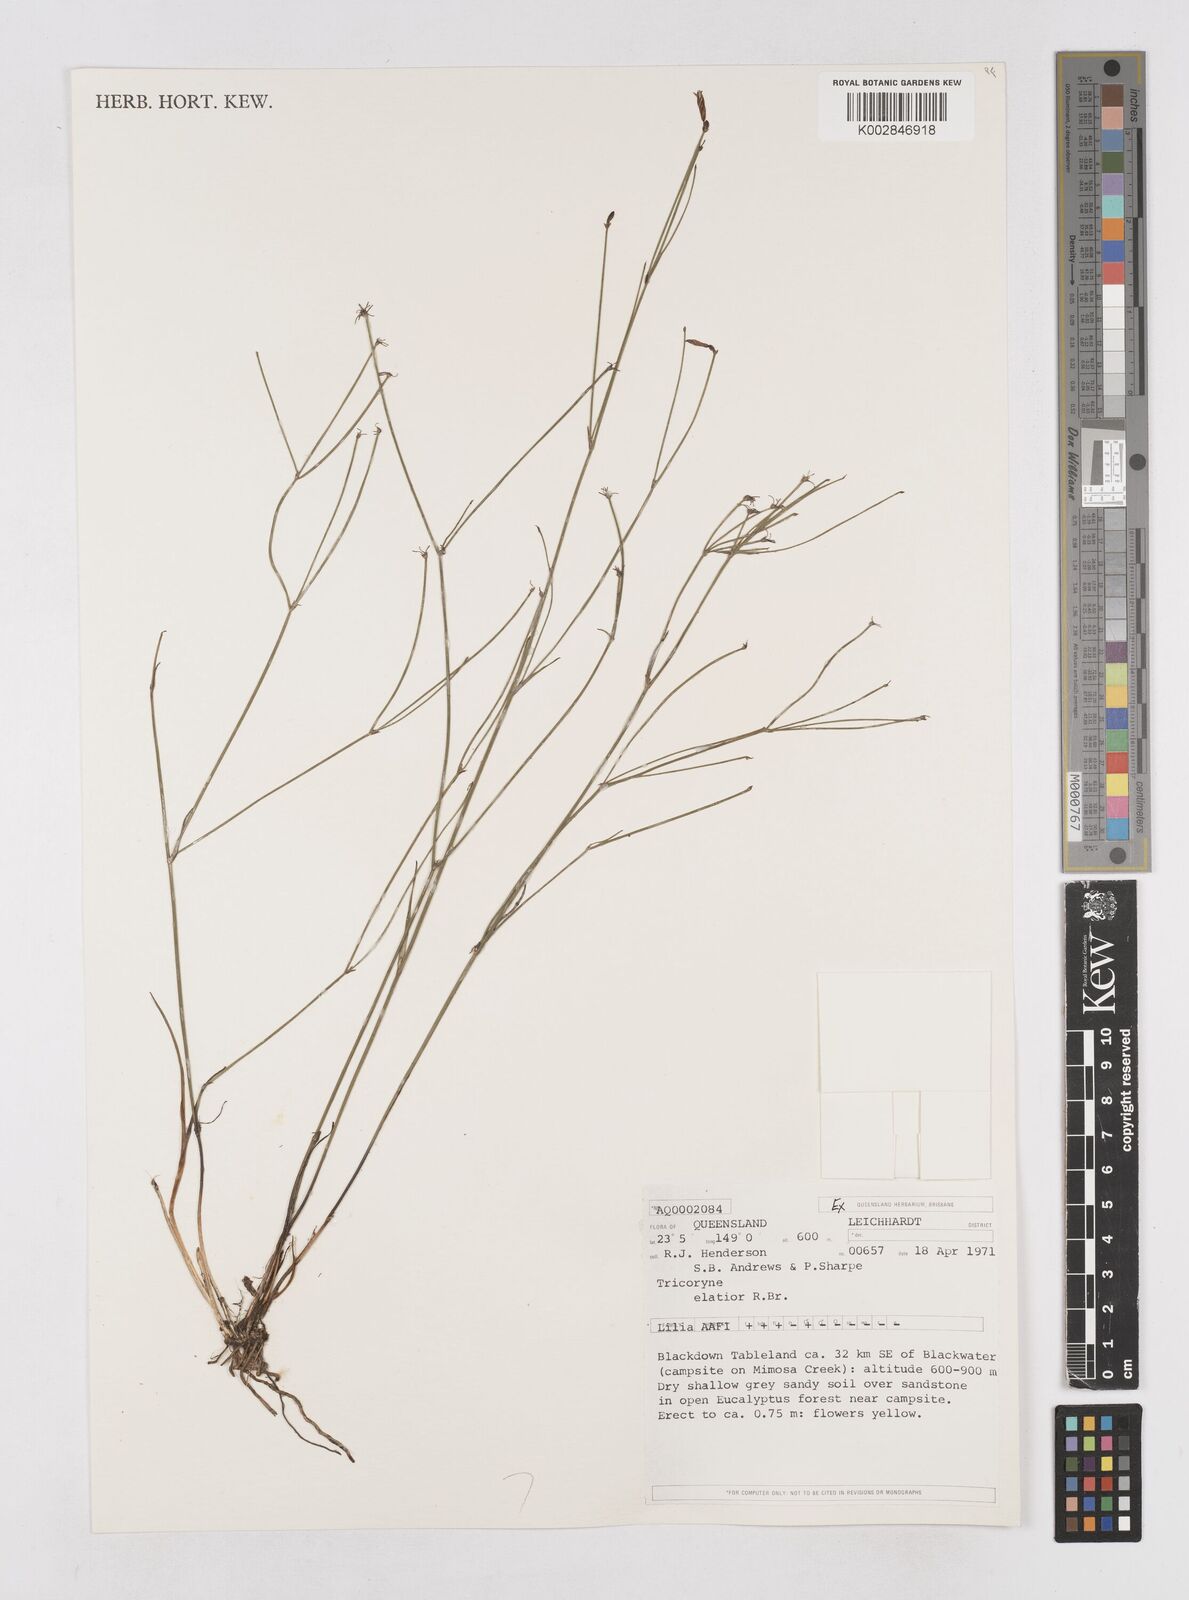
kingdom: Plantae
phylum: Tracheophyta
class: Liliopsida
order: Asparagales
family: Asphodelaceae
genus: Tricoryne
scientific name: Tricoryne elatior
